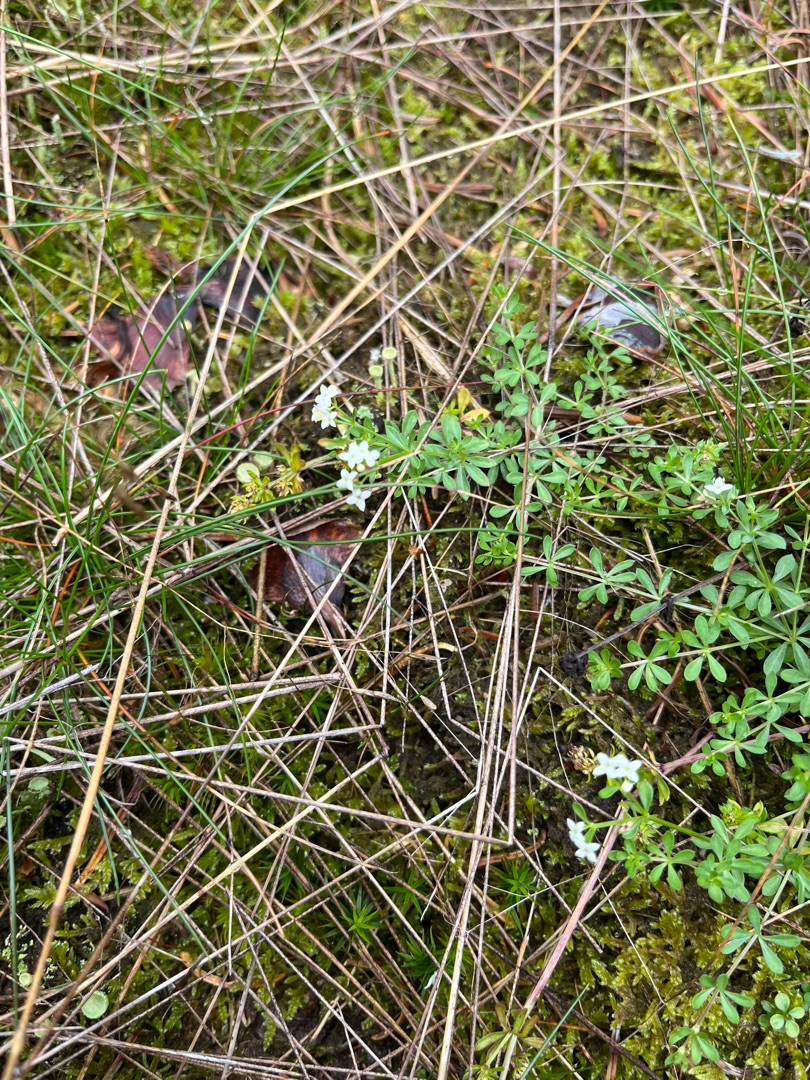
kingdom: Plantae
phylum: Tracheophyta
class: Magnoliopsida
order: Gentianales
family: Rubiaceae
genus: Galium
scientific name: Galium saxatile
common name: Lyng-snerre
